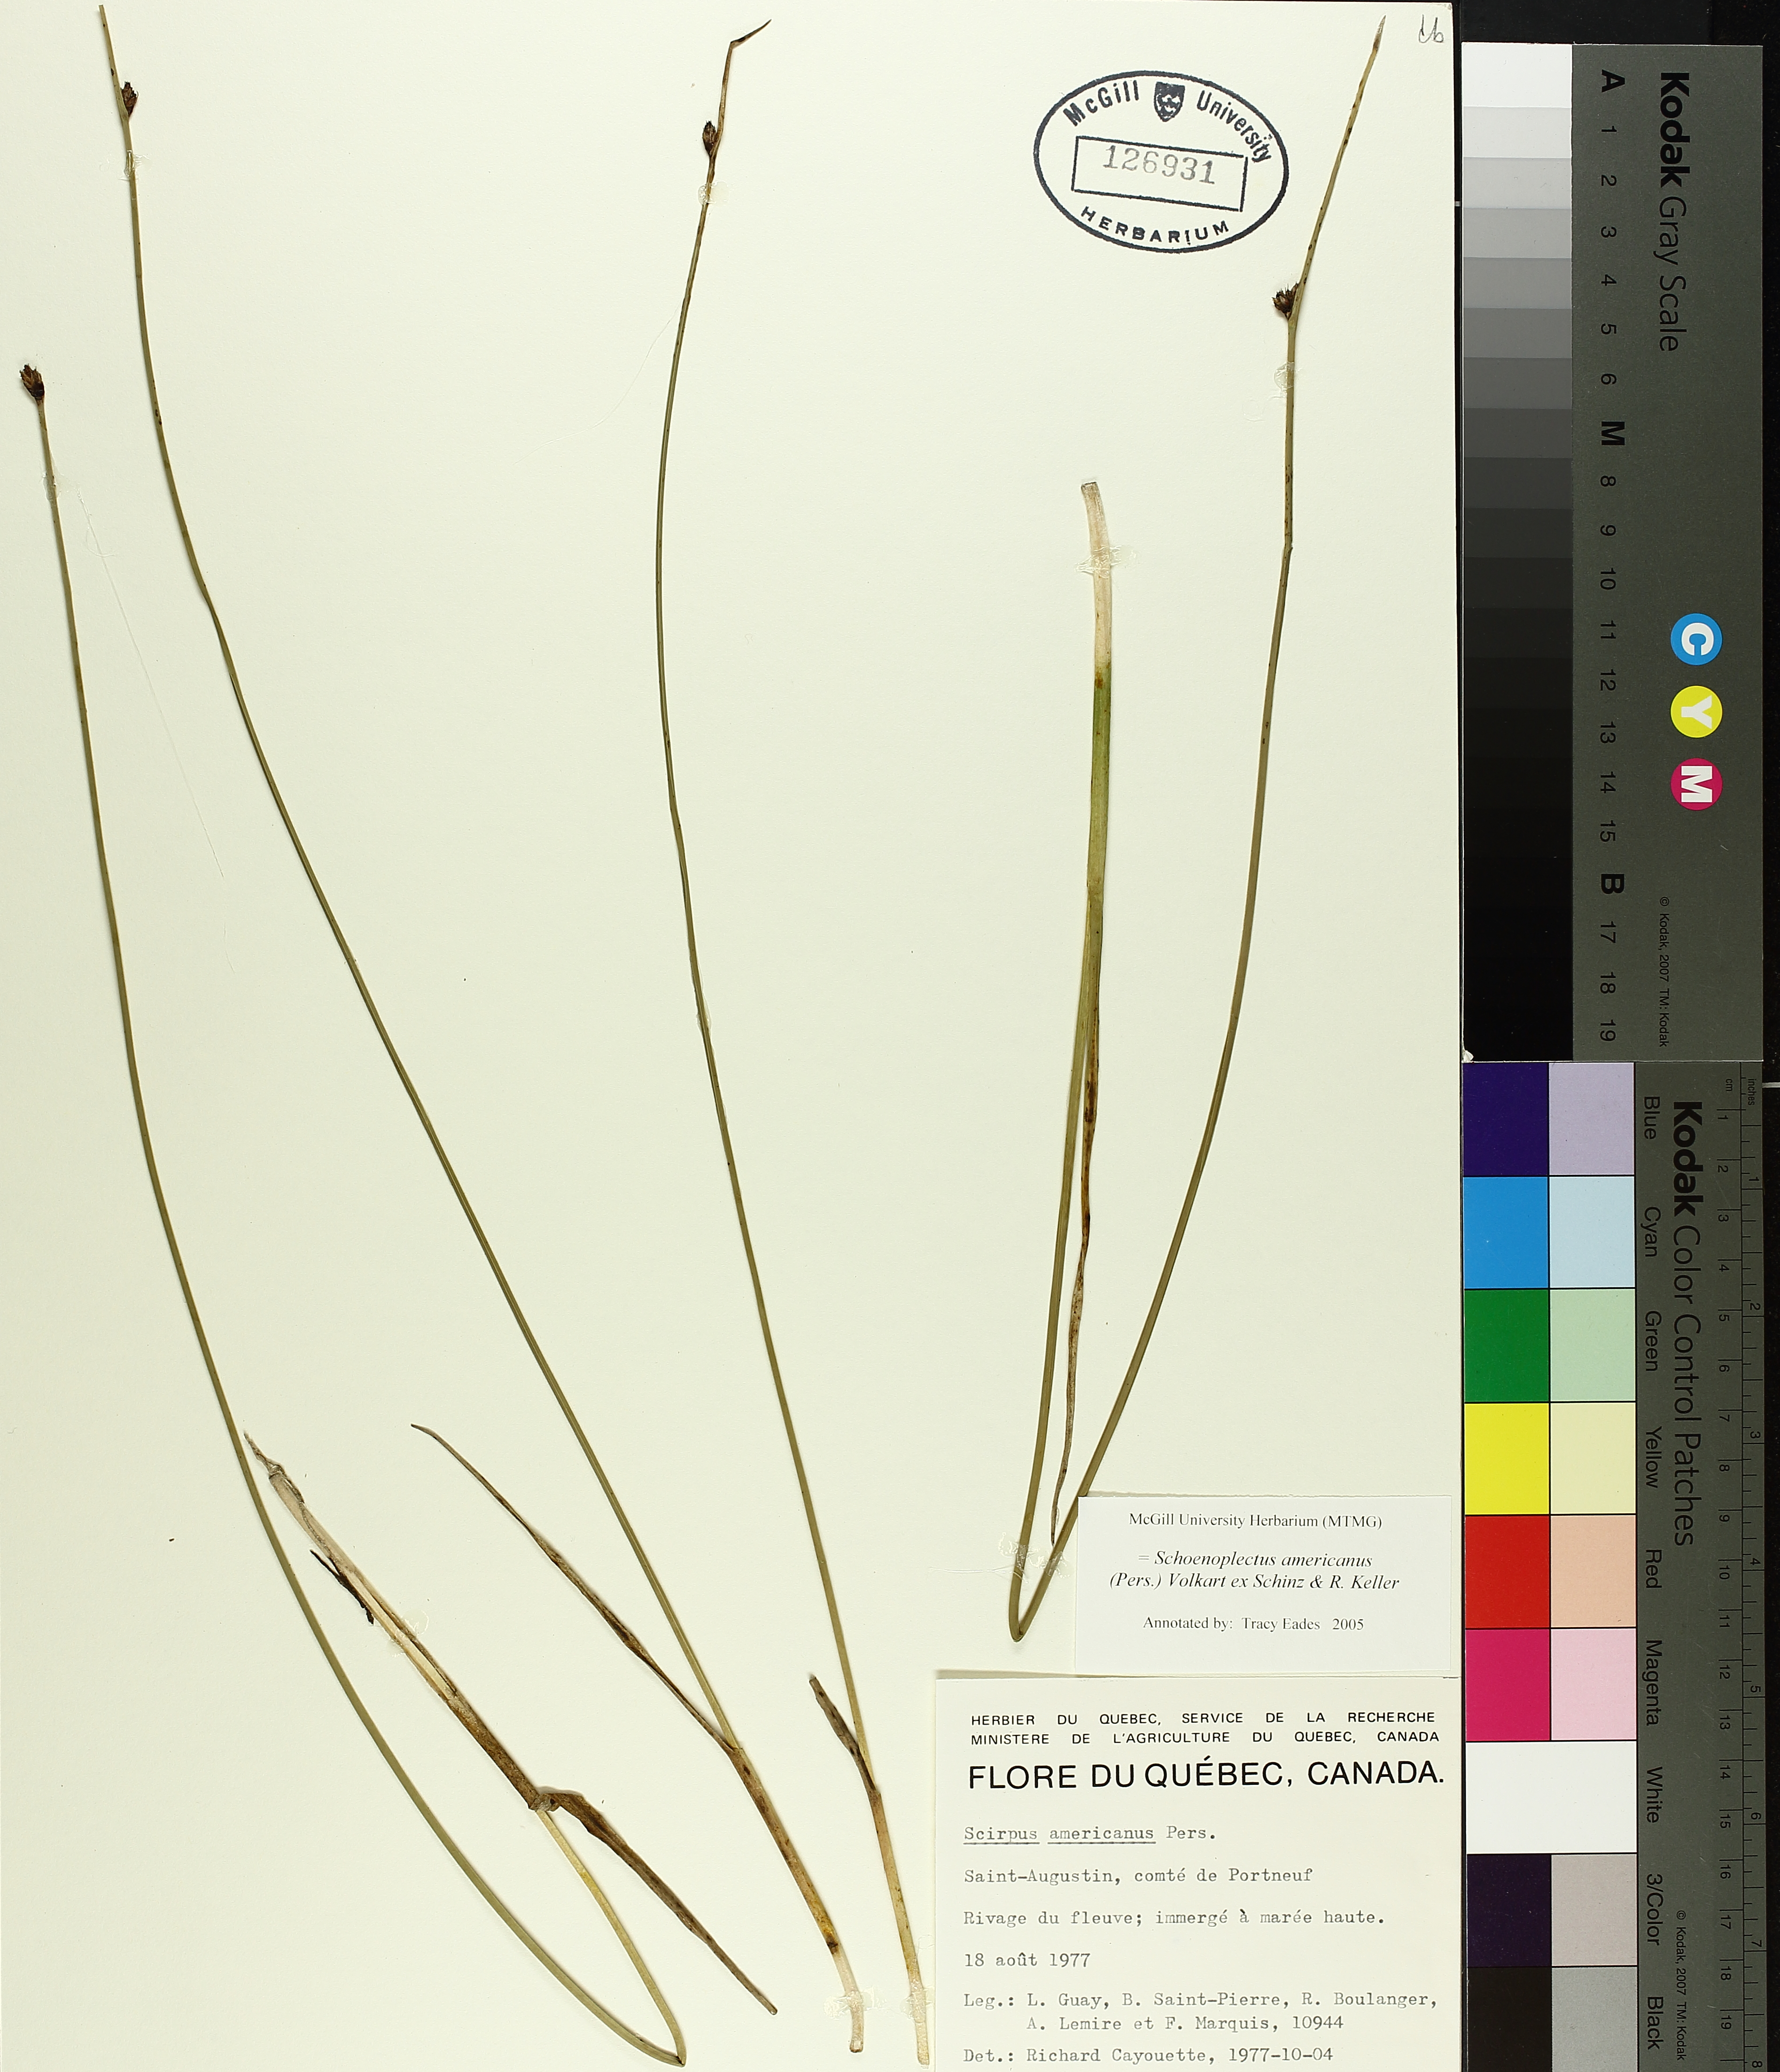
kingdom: Plantae
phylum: Tracheophyta
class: Liliopsida
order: Poales
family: Cyperaceae
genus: Schoenoplectus
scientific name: Schoenoplectus americanus
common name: American three-square bulrush
